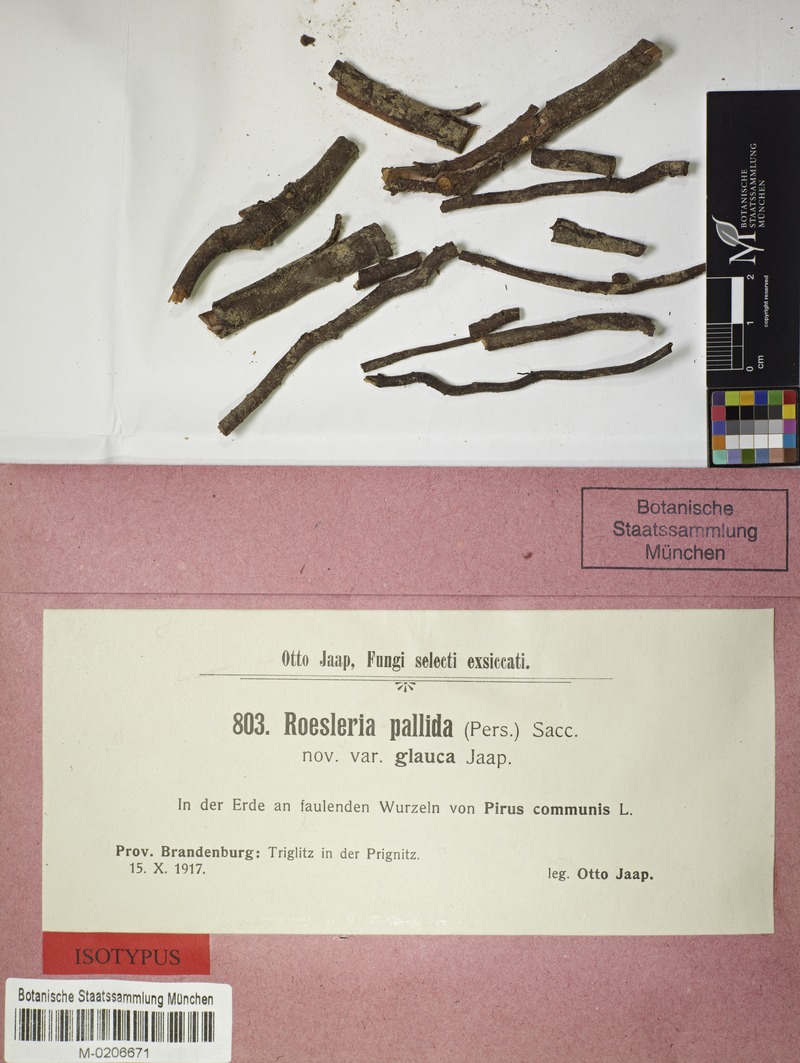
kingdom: Fungi
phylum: Ascomycota
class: Coniocybomycetes
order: Coniocybales
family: Coniocybaceae
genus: Sclerophora
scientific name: Sclerophora pallida
